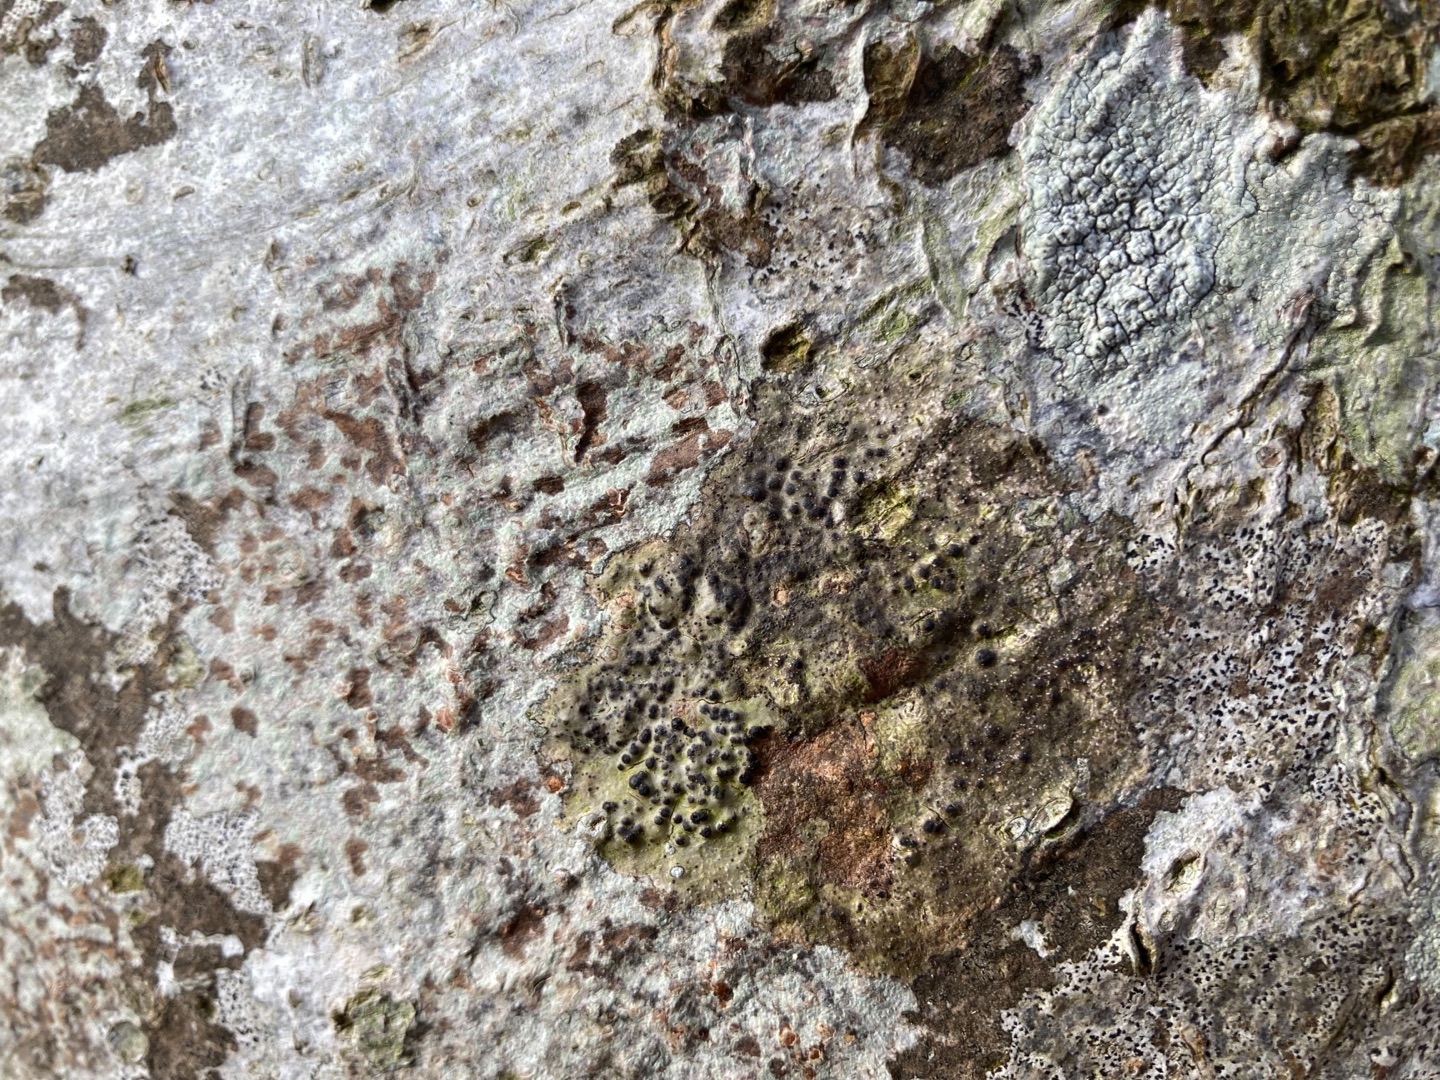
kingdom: Fungi
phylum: Ascomycota
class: Eurotiomycetes
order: Pyrenulales
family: Pyrenulaceae
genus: Pyrenula
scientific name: Pyrenula nitida
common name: Glinsende kernelav
